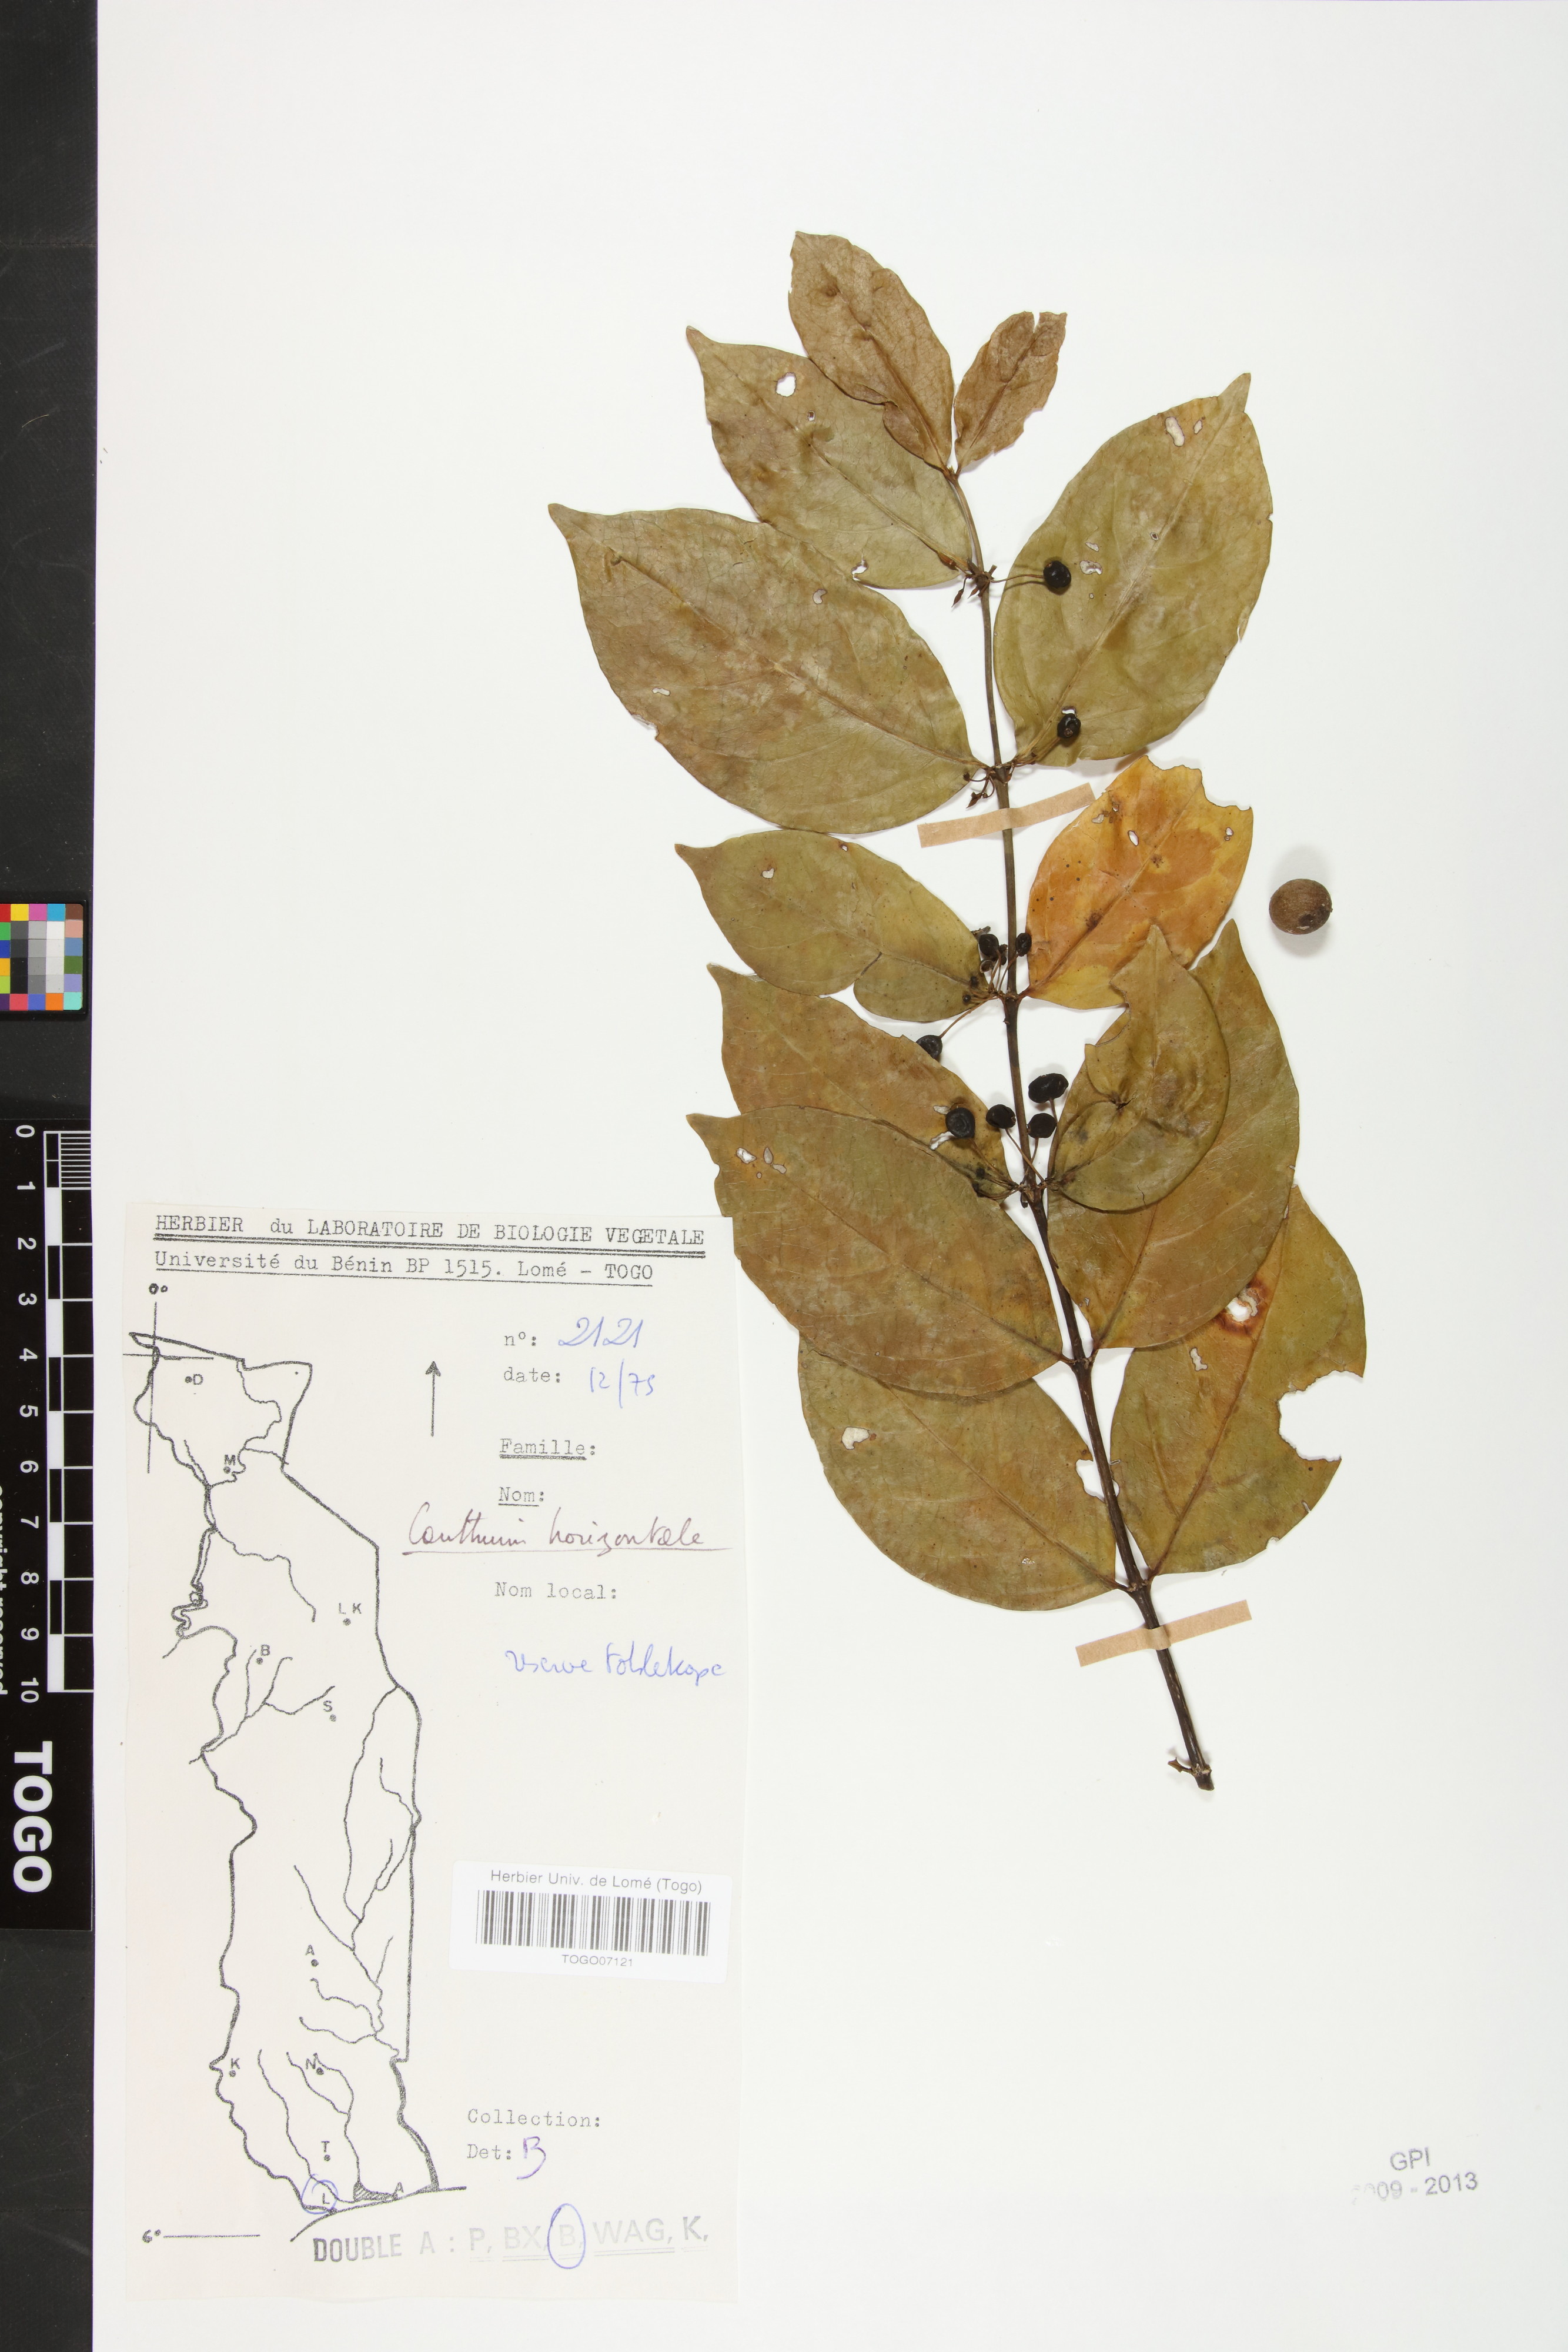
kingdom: Plantae
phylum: Tracheophyta
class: Magnoliopsida
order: Gentianales
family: Rubiaceae
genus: Psydrax
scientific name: Psydrax horizontalis
